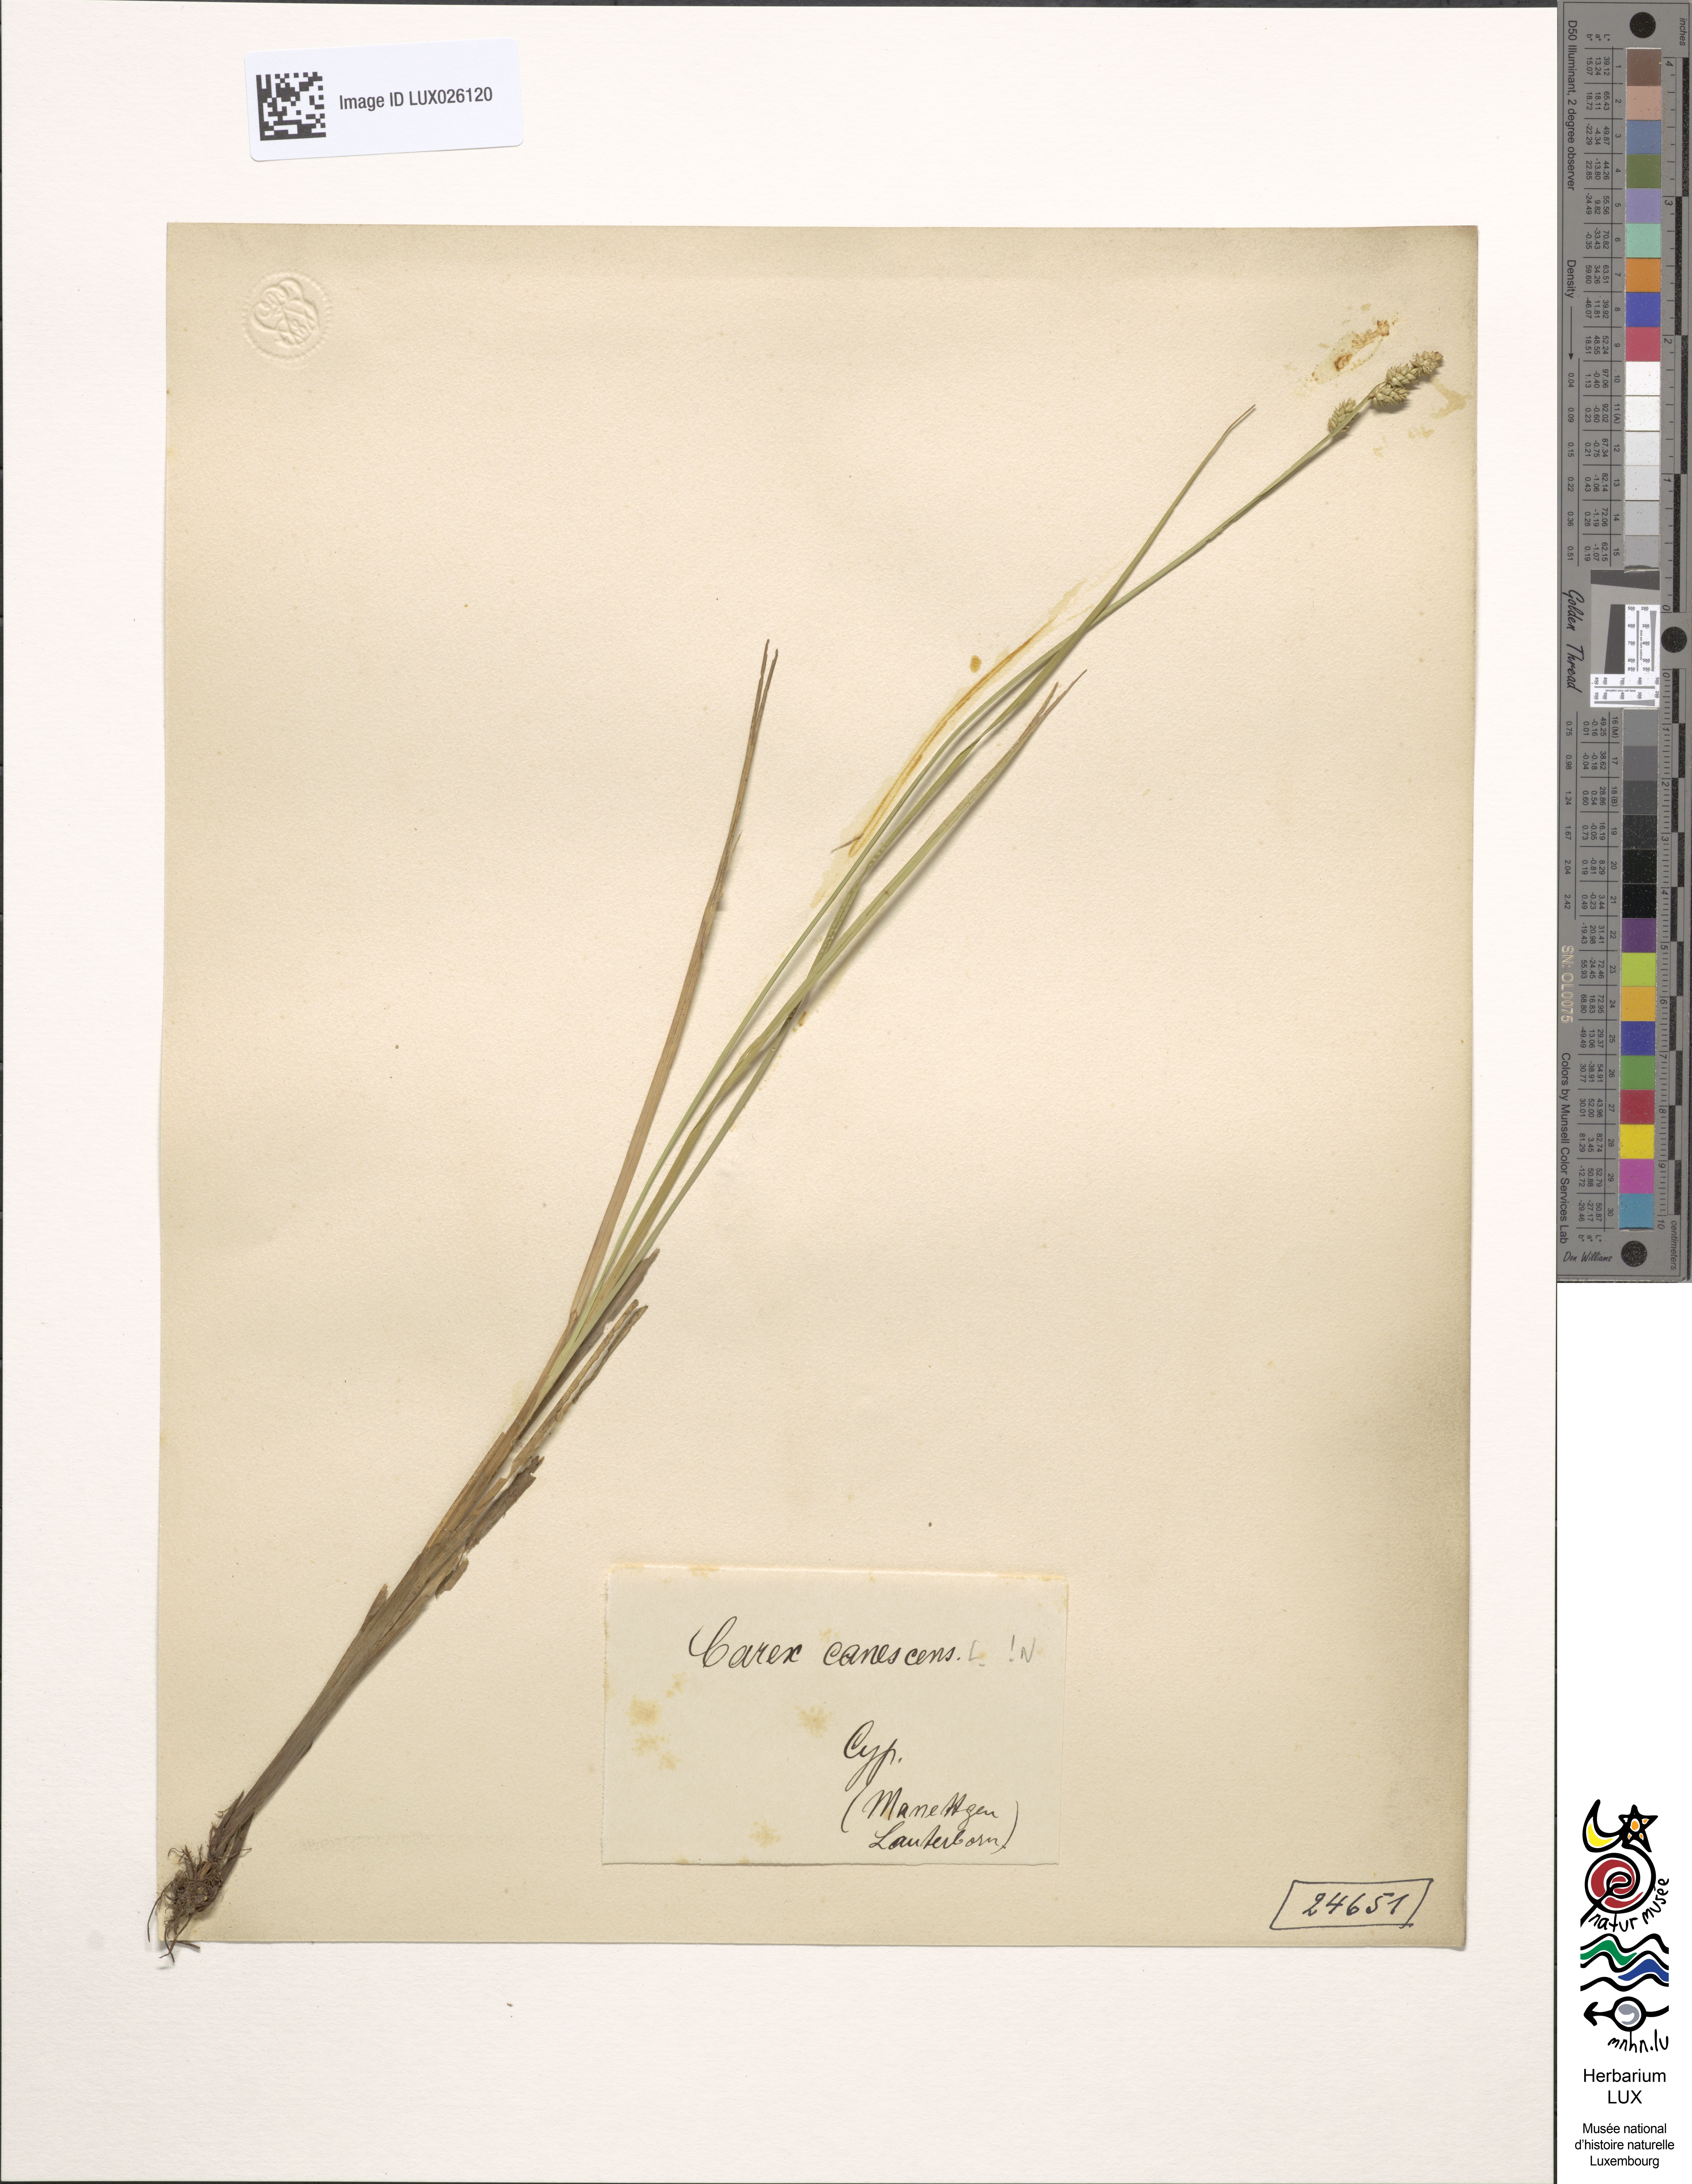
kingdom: Plantae
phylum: Tracheophyta
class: Liliopsida
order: Poales
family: Cyperaceae
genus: Carex
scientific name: Carex canescens
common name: White sedge
